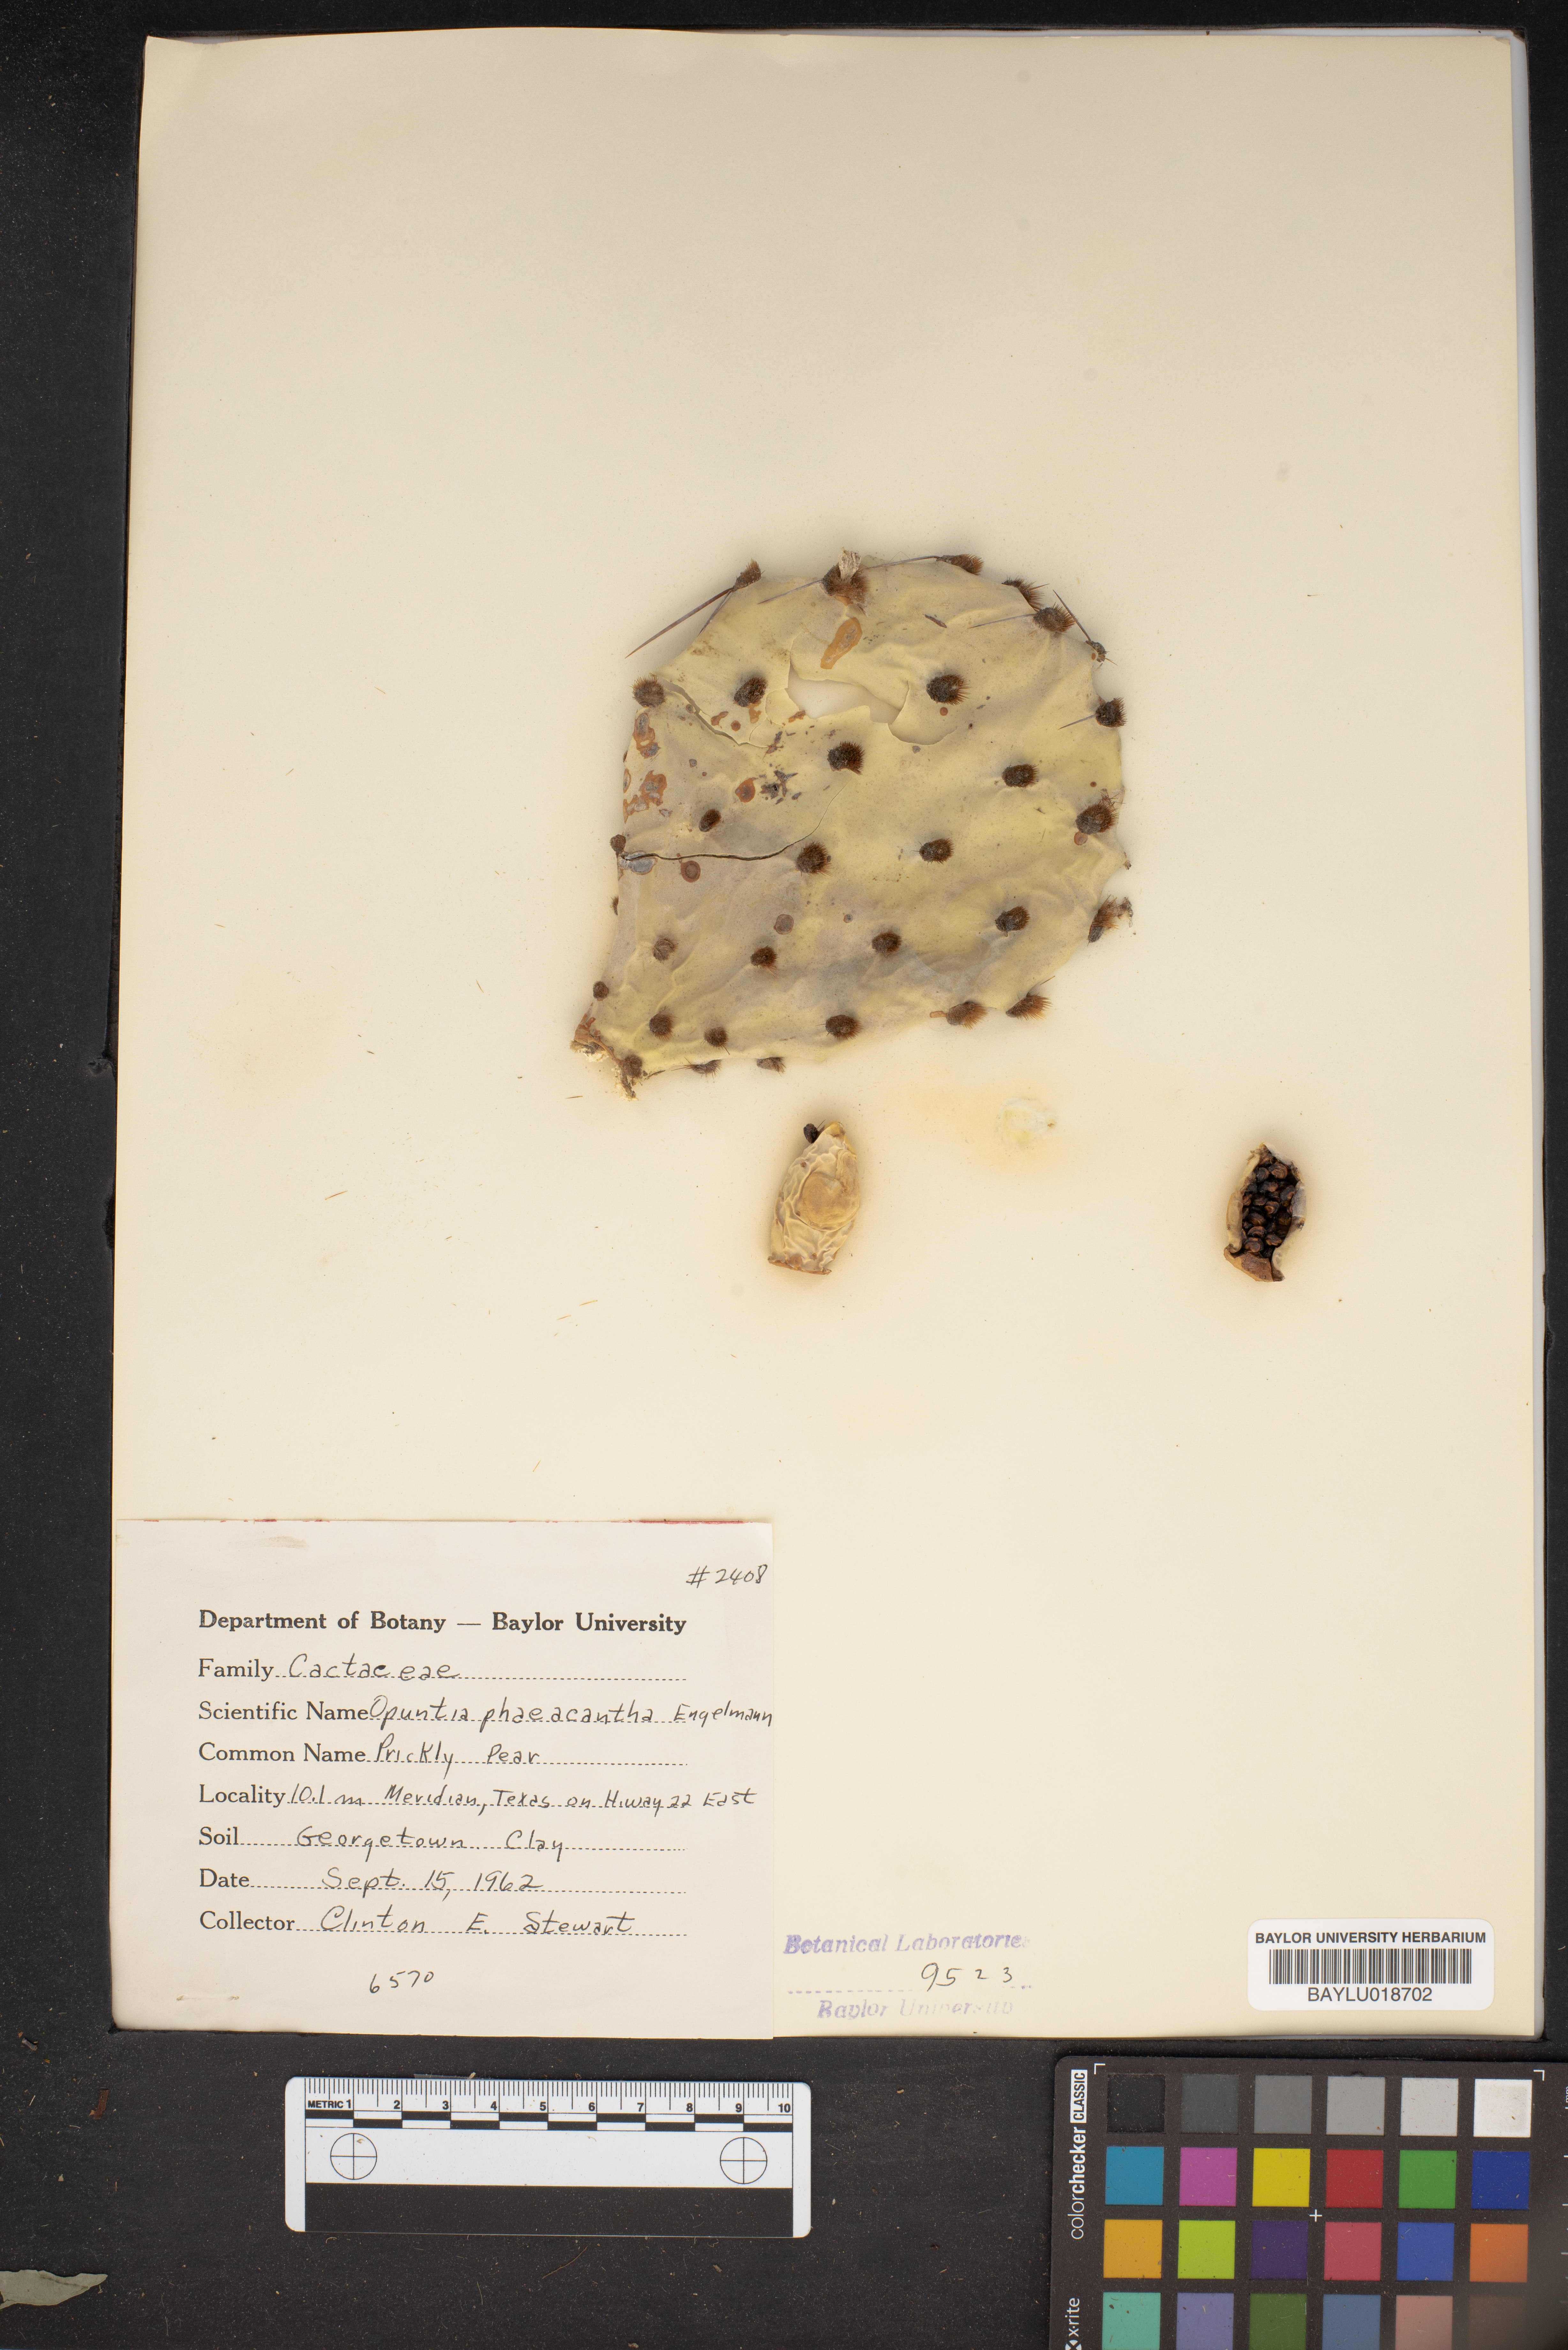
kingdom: Plantae
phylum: Tracheophyta
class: Magnoliopsida
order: Caryophyllales
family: Cactaceae
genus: Opuntia
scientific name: Opuntia phaeacantha
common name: New mexico prickly-pear
